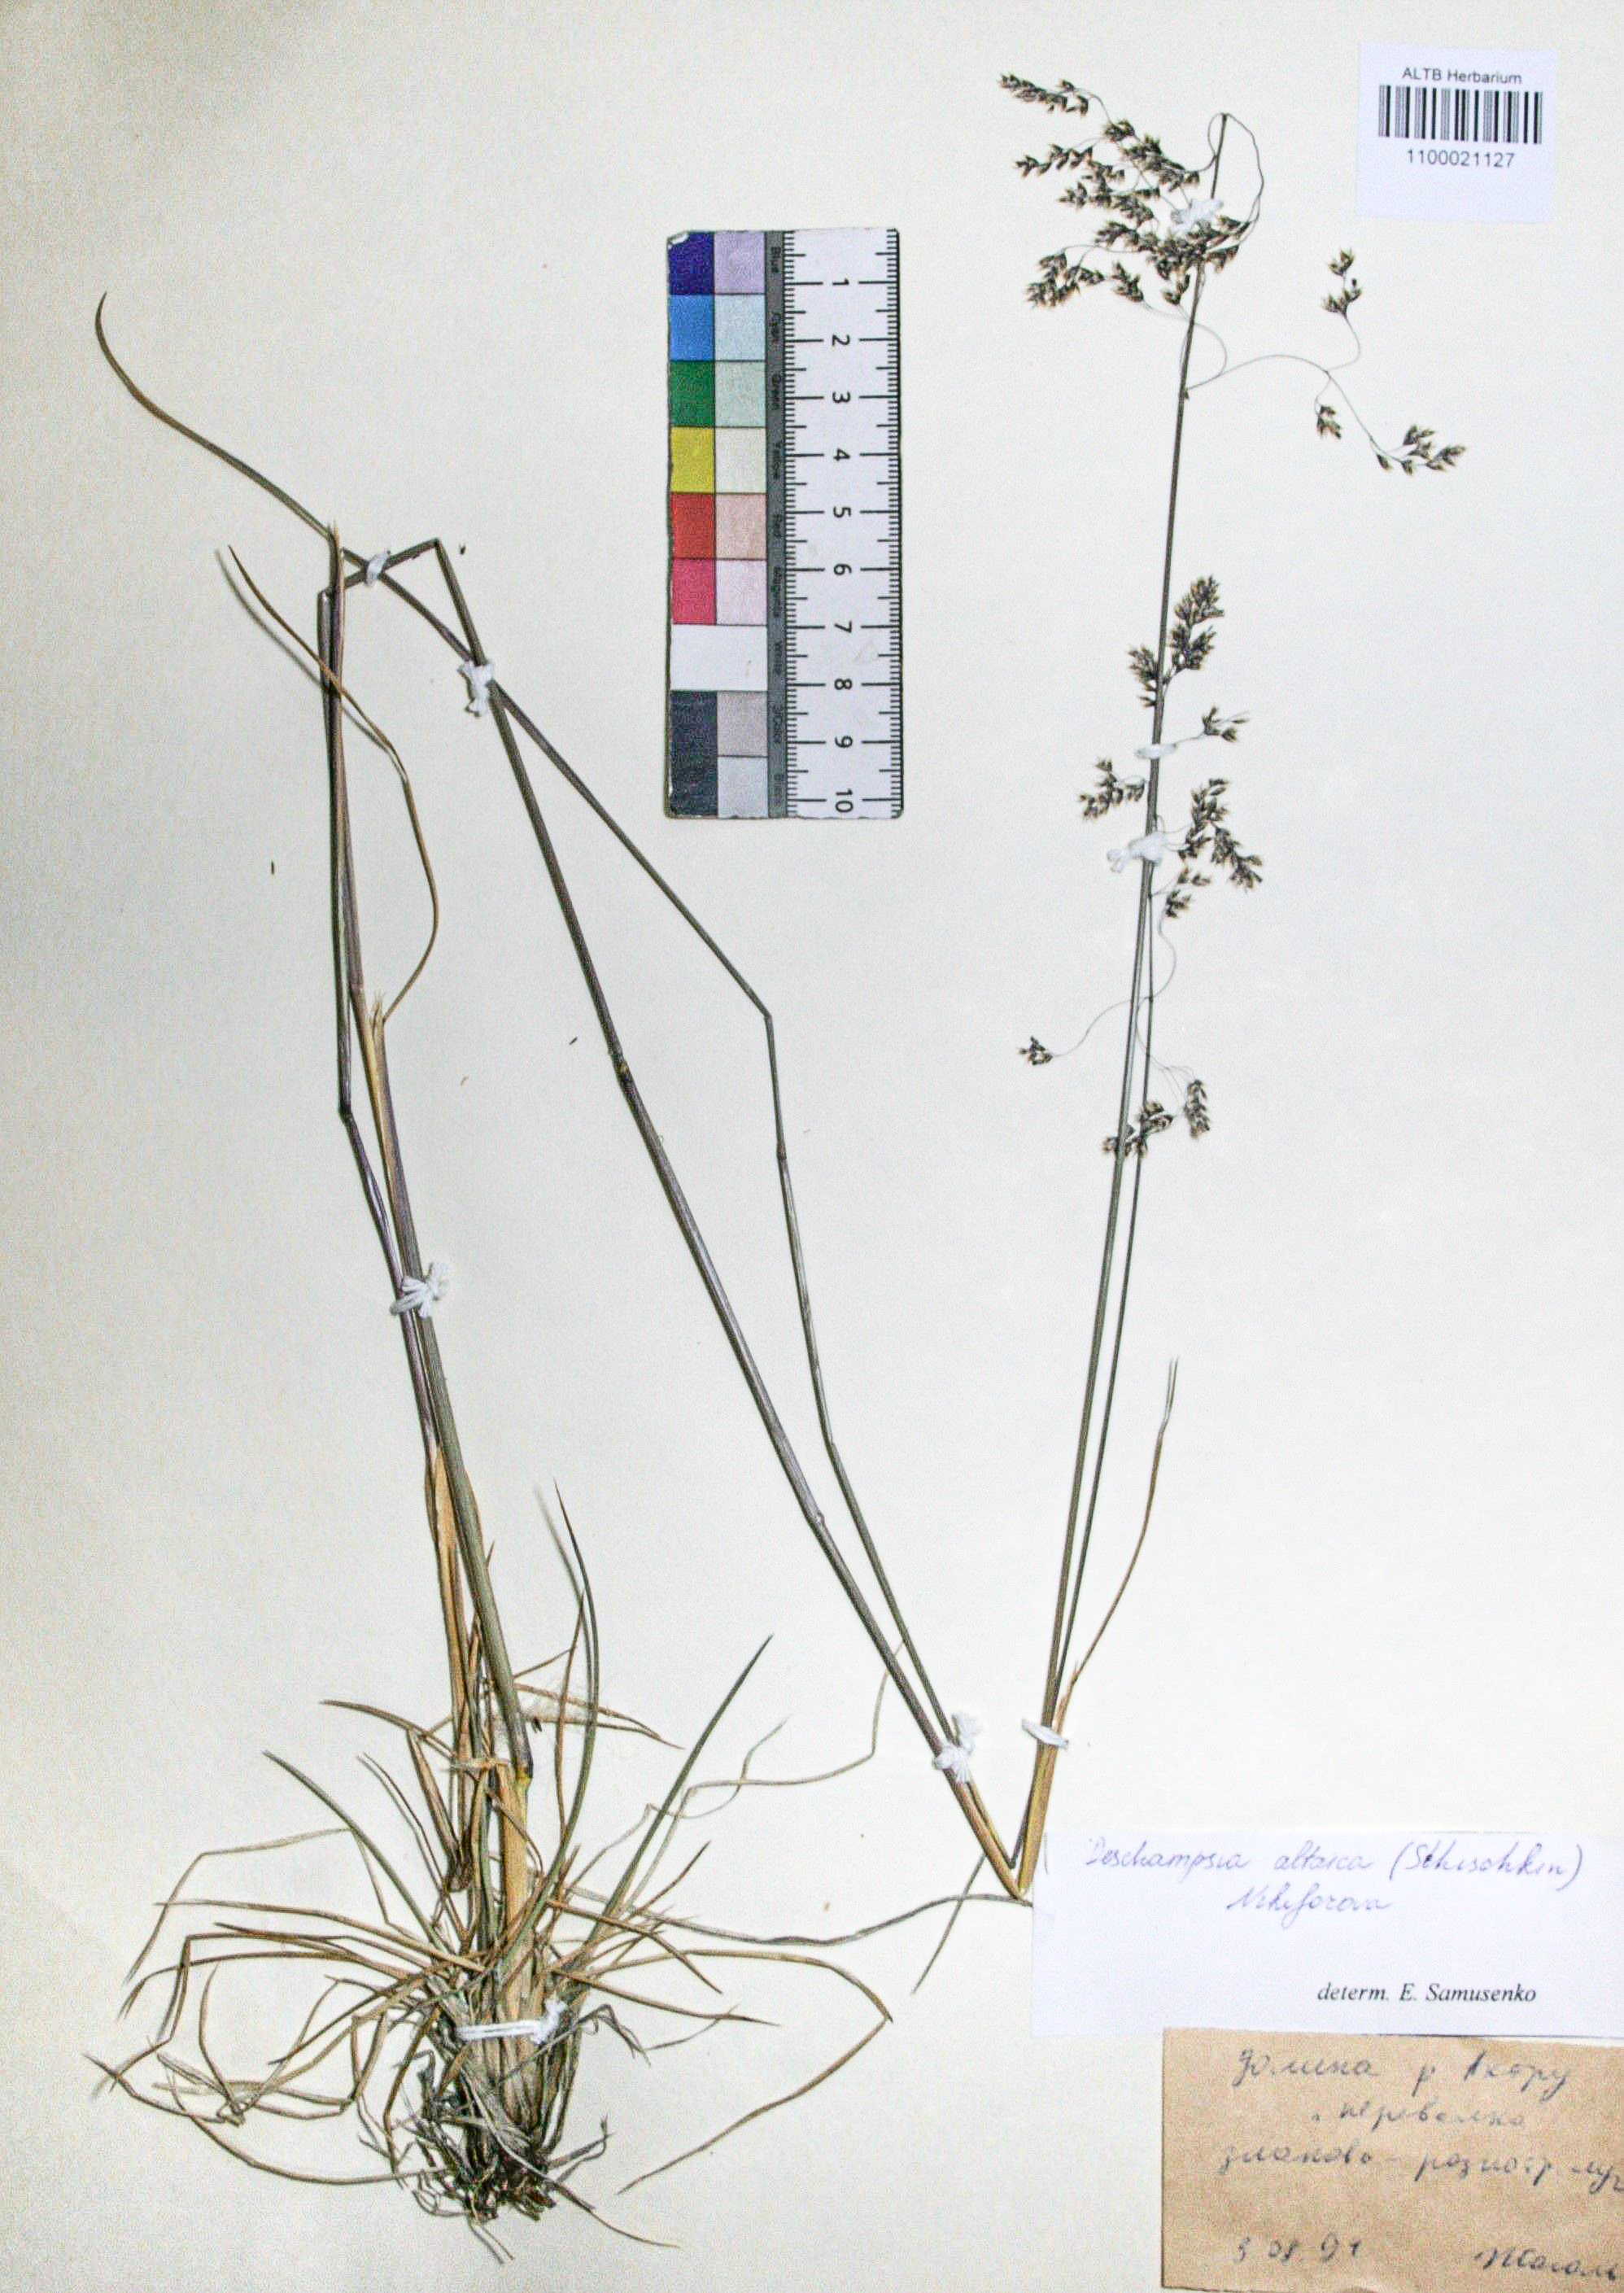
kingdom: Plantae
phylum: Tracheophyta
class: Liliopsida
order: Poales
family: Poaceae
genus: Deschampsia
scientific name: Deschampsia cespitosa
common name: Tufted hair-grass
